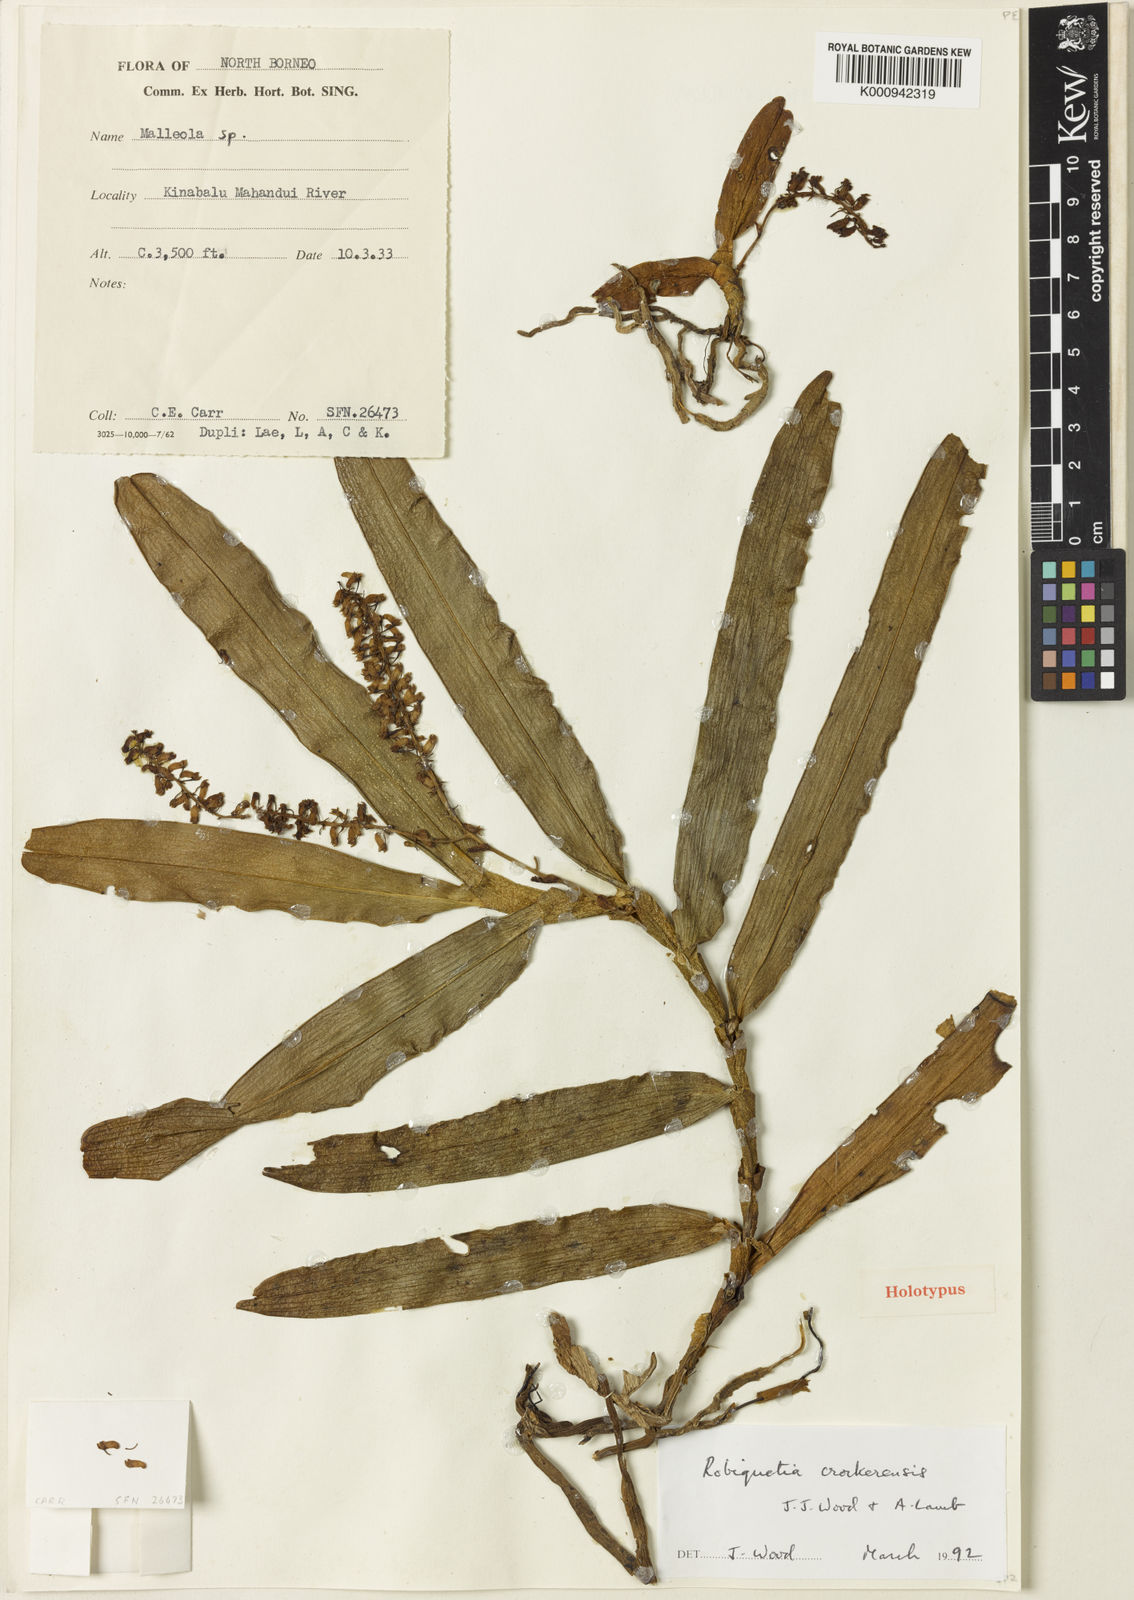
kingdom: Plantae
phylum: Tracheophyta
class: Liliopsida
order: Asparagales
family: Orchidaceae
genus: Robiquetia
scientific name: Robiquetia crockerensis
